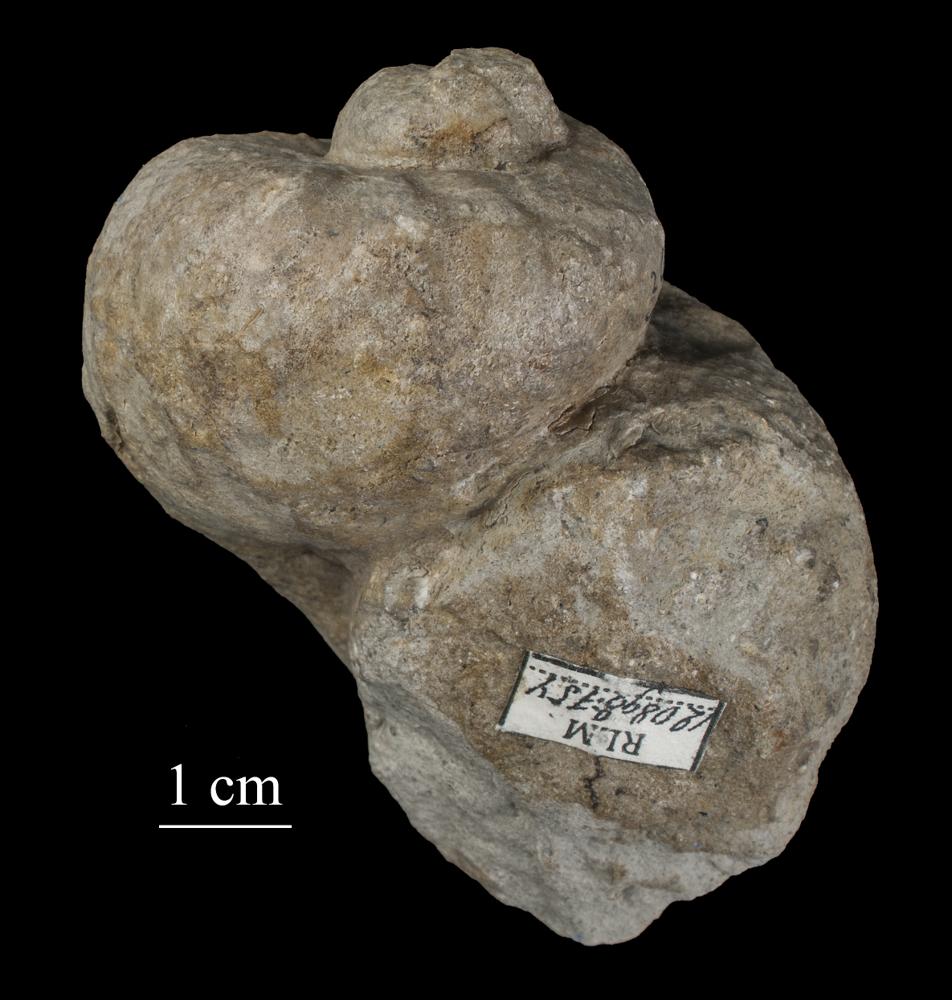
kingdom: Animalia
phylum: Mollusca
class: Gastropoda
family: Holopeidae
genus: Holopea
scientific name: Holopea ampullacea
